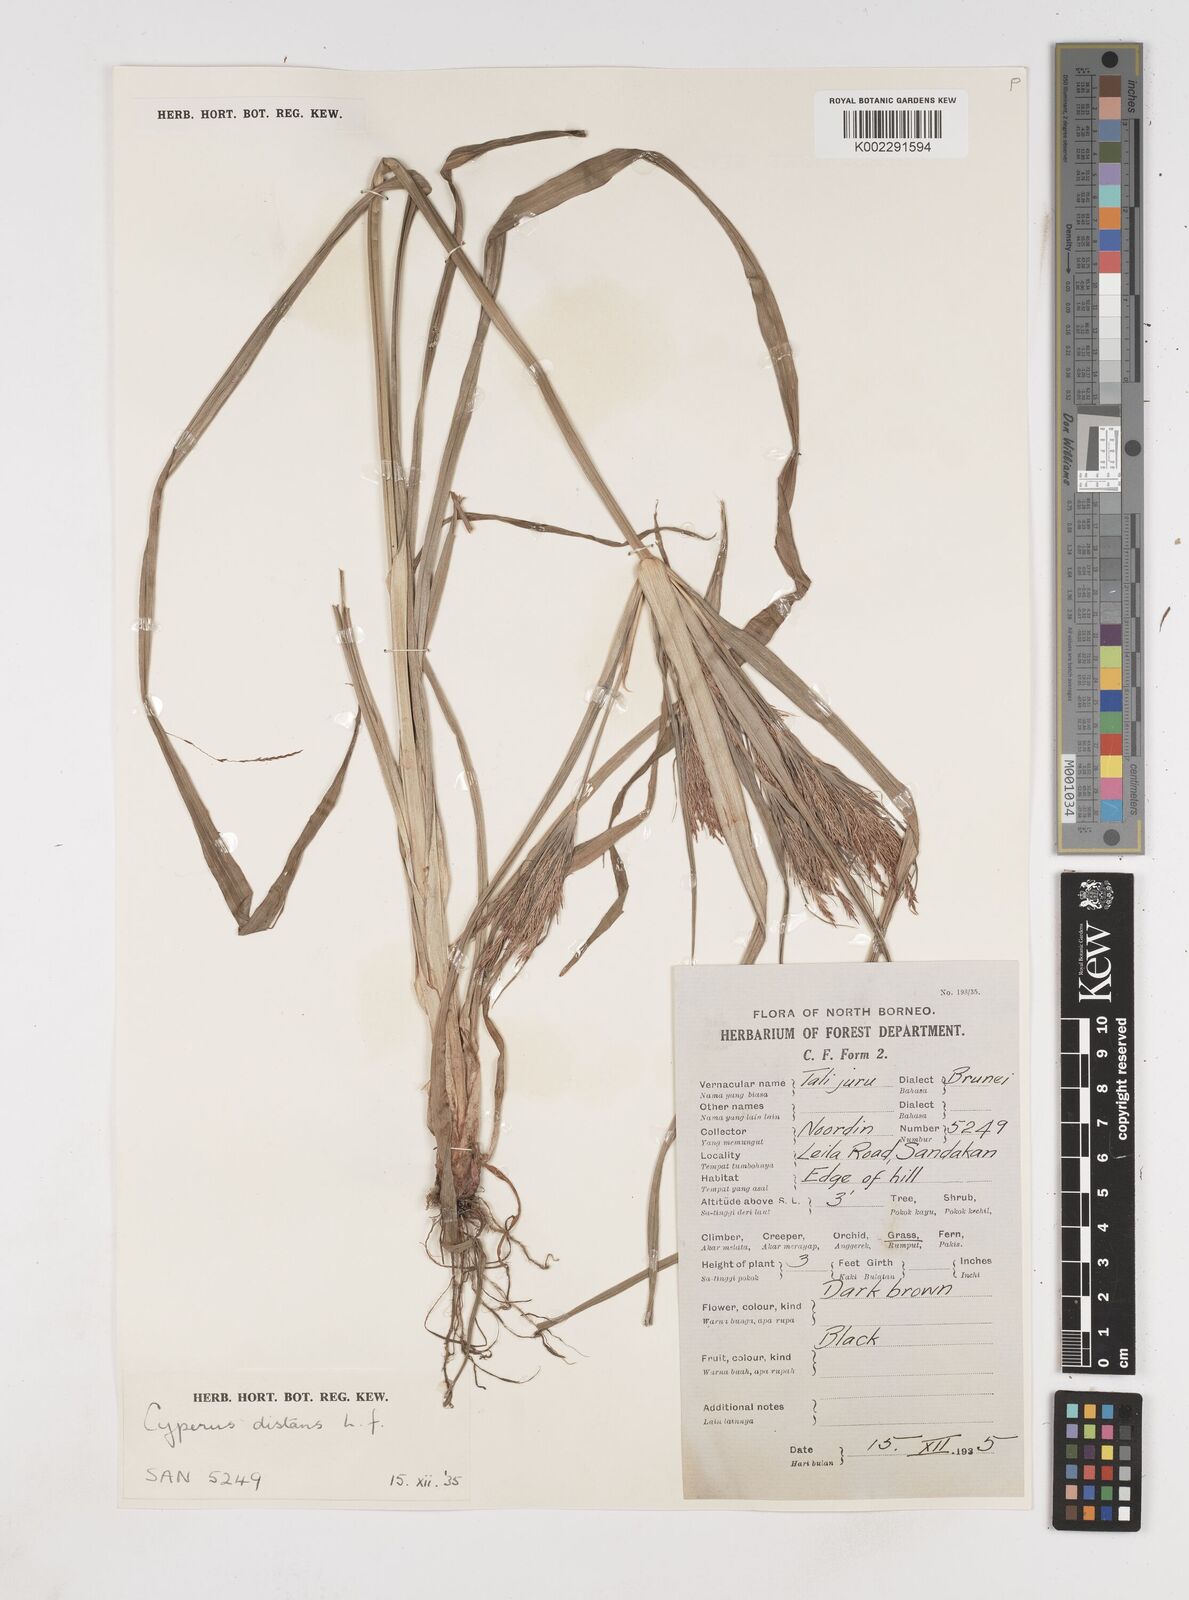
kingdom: Plantae
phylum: Tracheophyta
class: Liliopsida
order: Poales
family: Cyperaceae
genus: Cyperus
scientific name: Cyperus distans
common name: Slender cyperus
